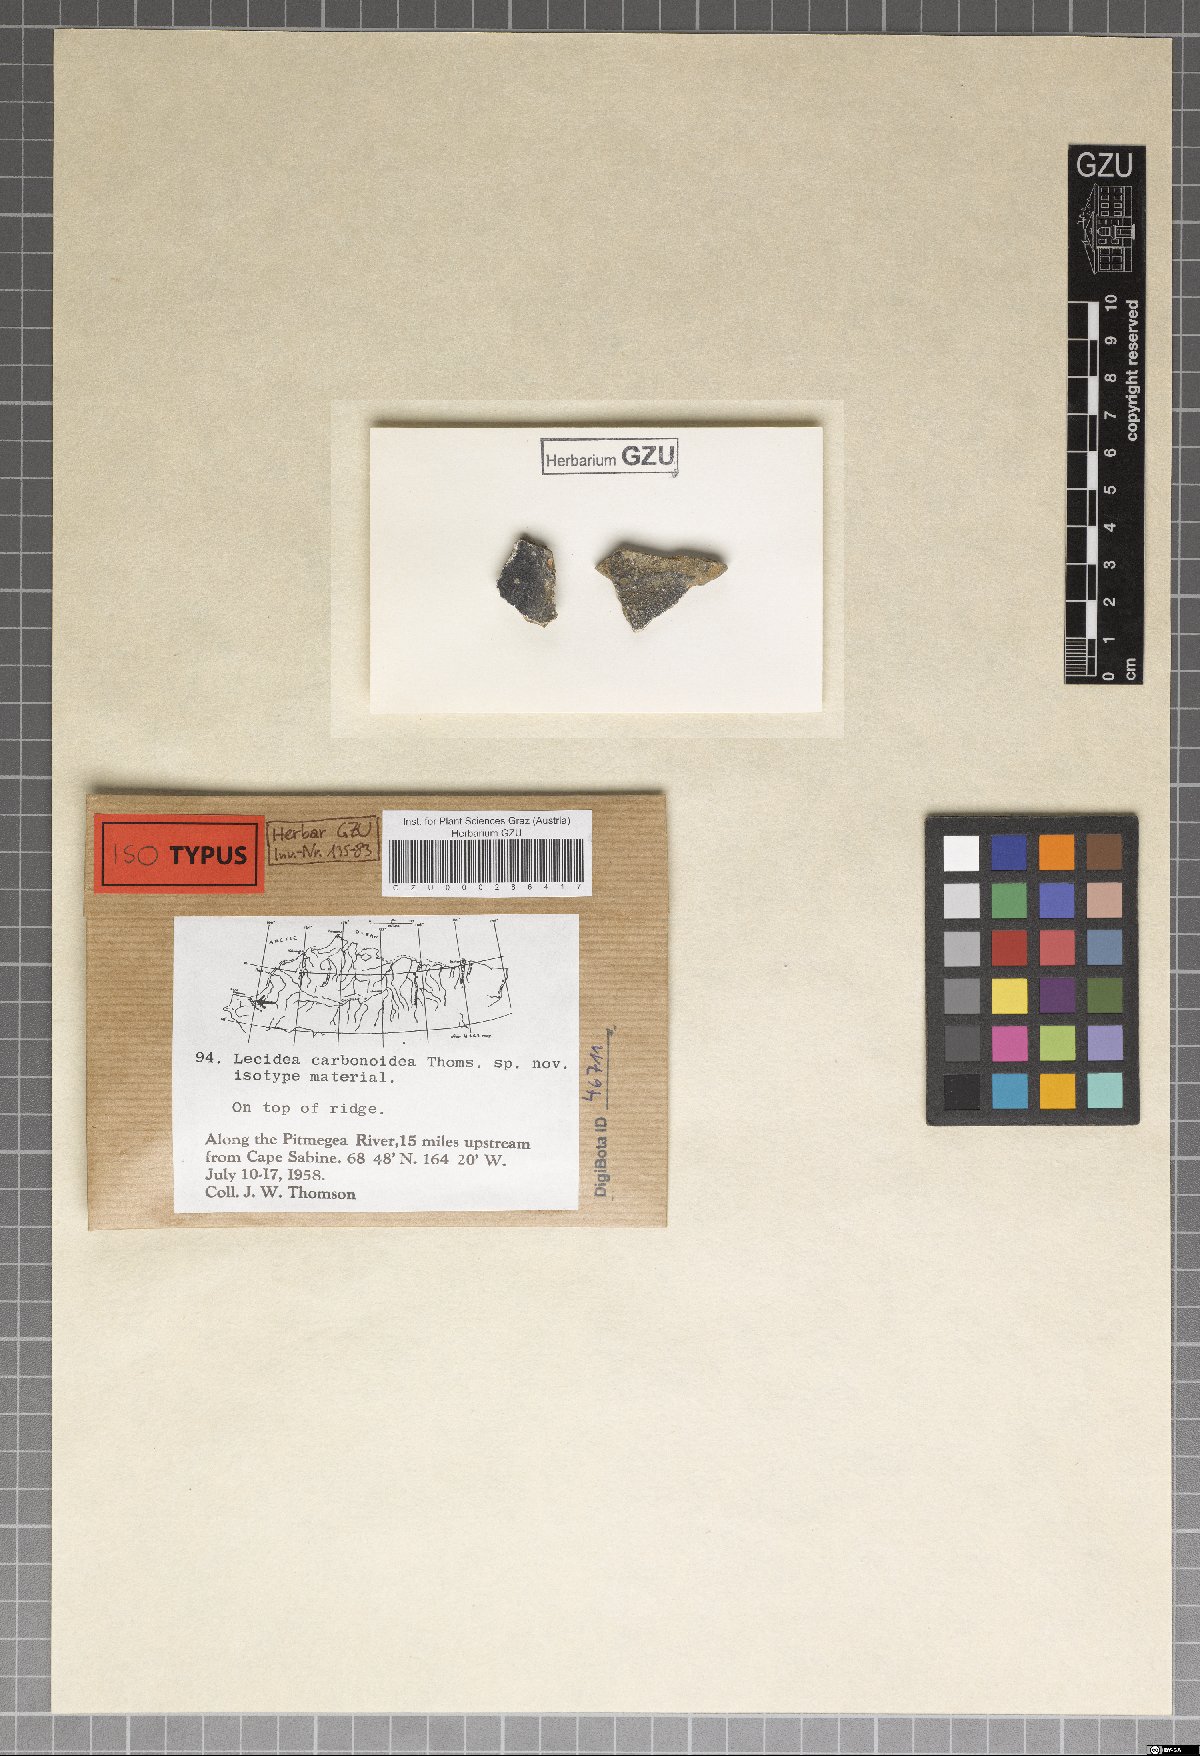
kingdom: Fungi
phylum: Ascomycota
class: Lecanoromycetes
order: Lecideales
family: Lecideaceae
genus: Lecidea
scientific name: Lecidea carbonoidea
